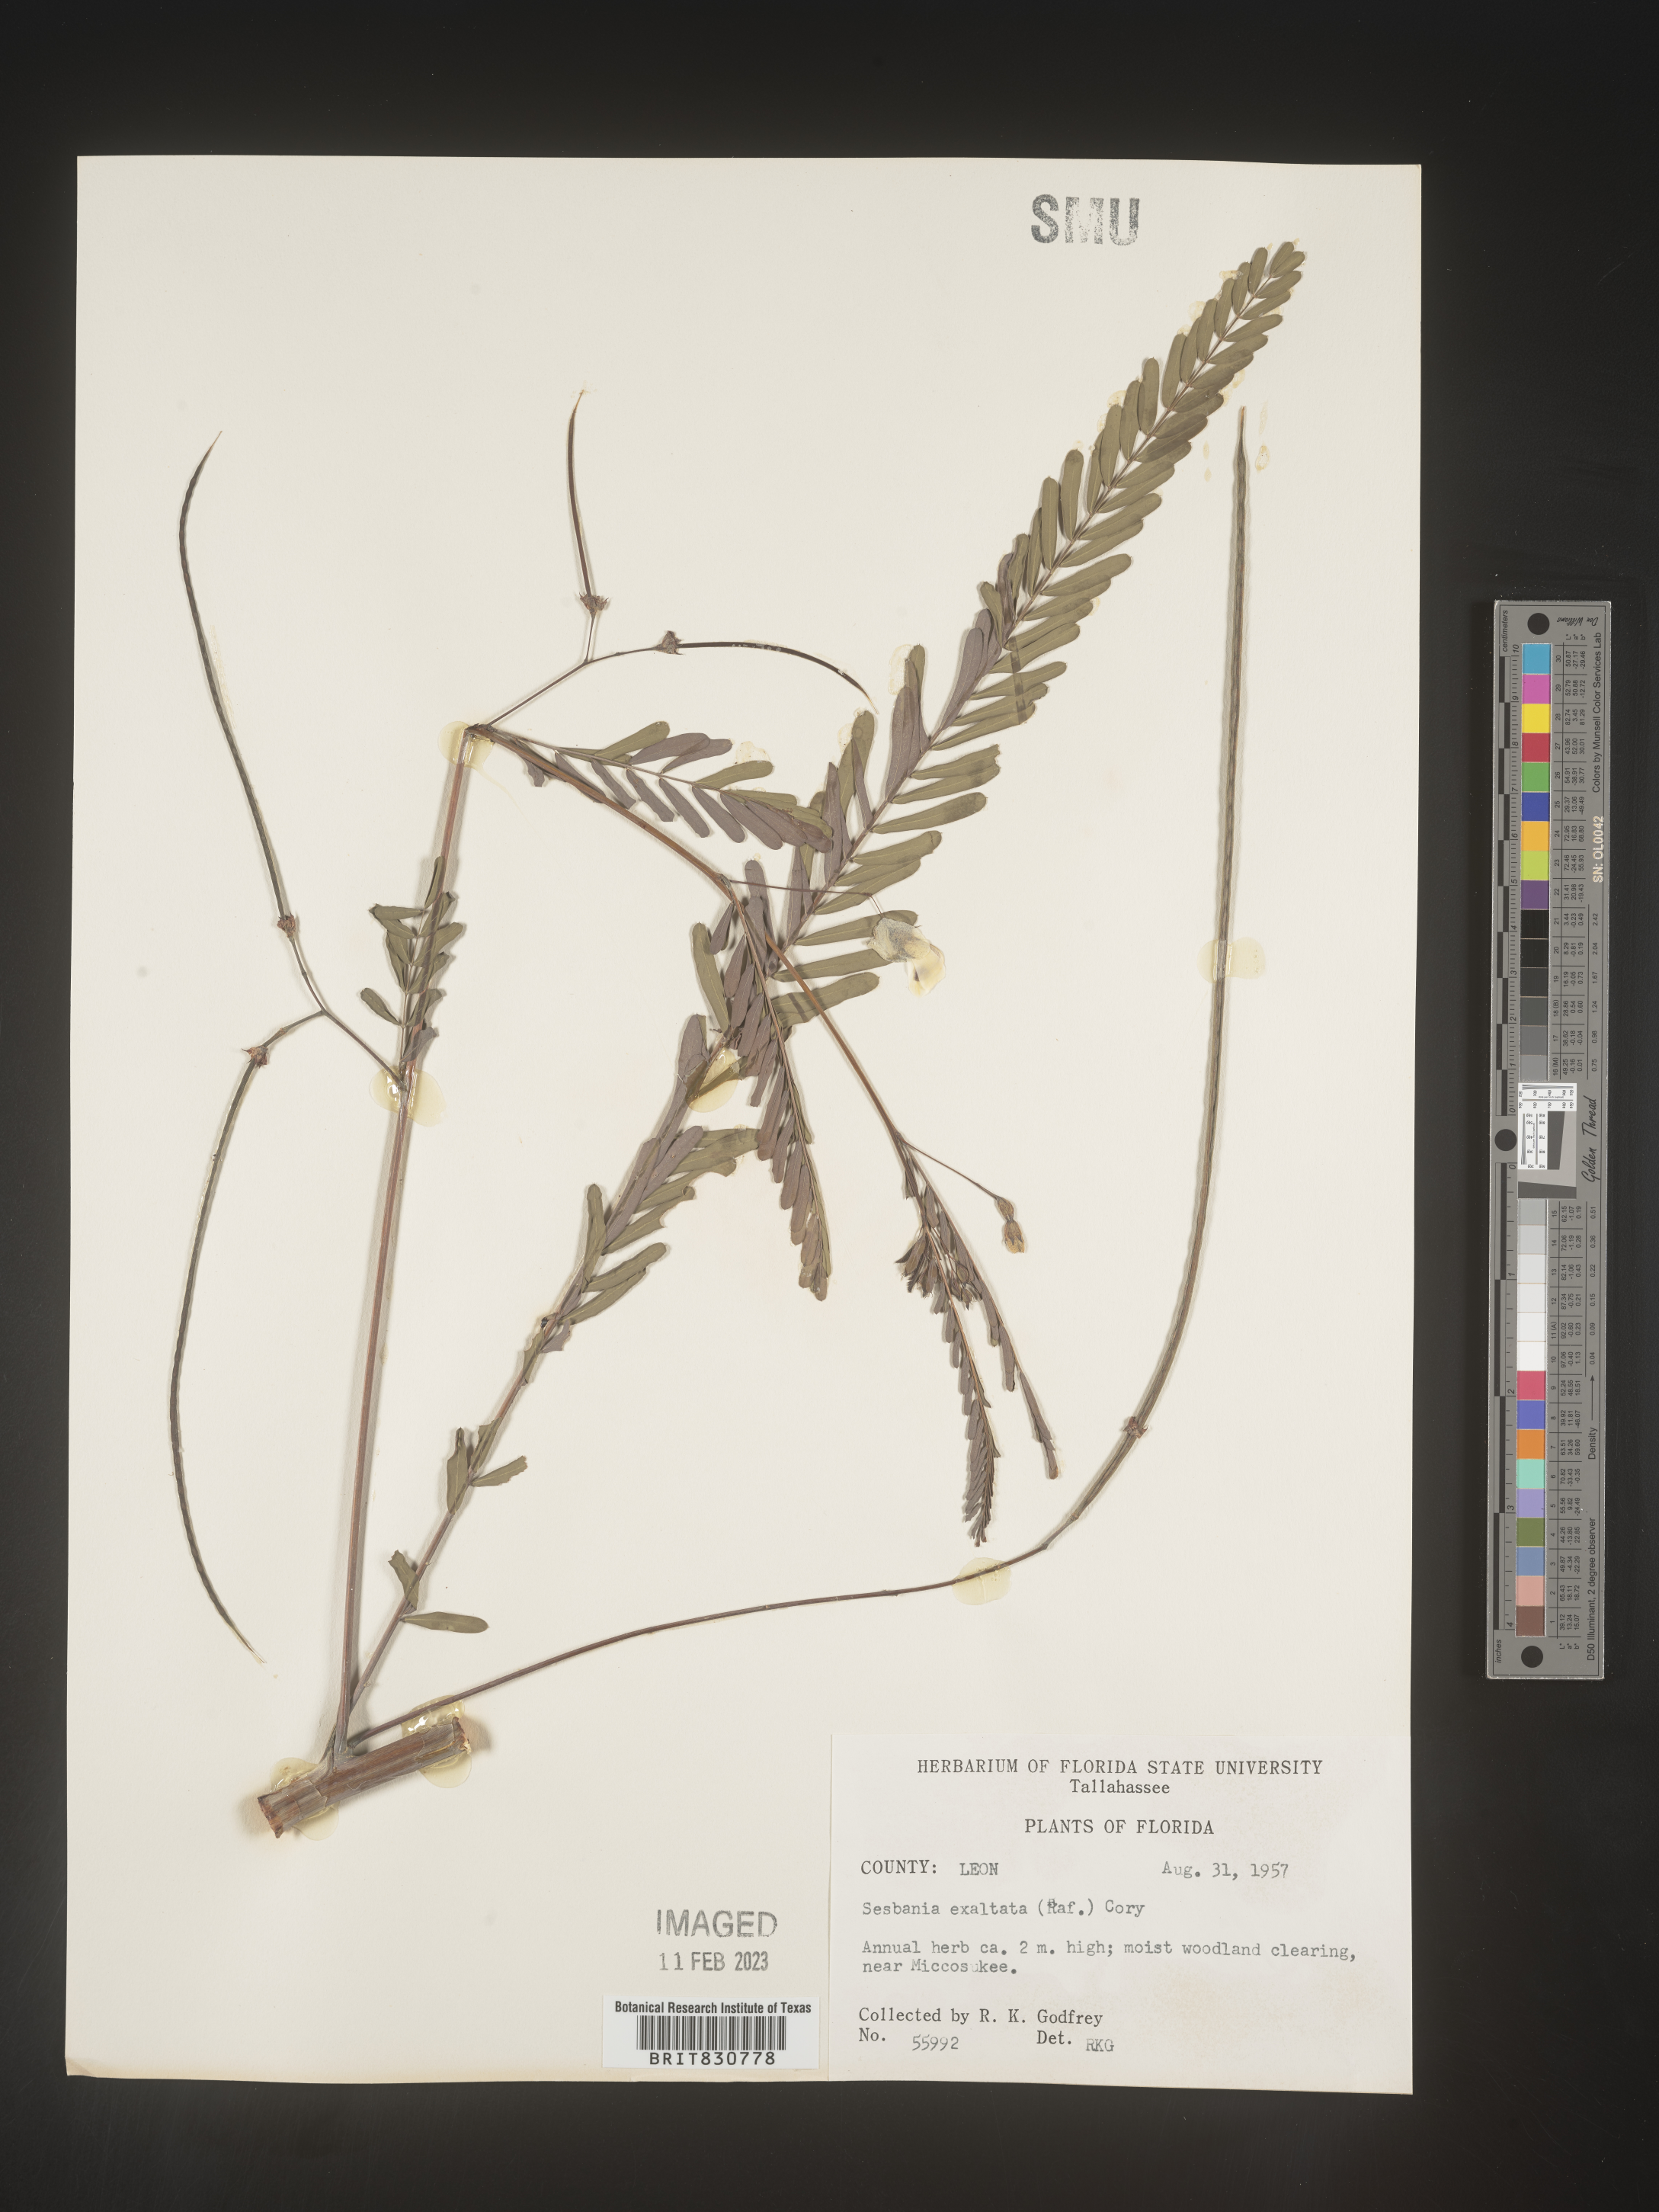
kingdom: Plantae
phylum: Tracheophyta
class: Magnoliopsida
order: Fabales
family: Fabaceae
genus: Sesbania
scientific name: Sesbania vesicaria
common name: Bagpod
